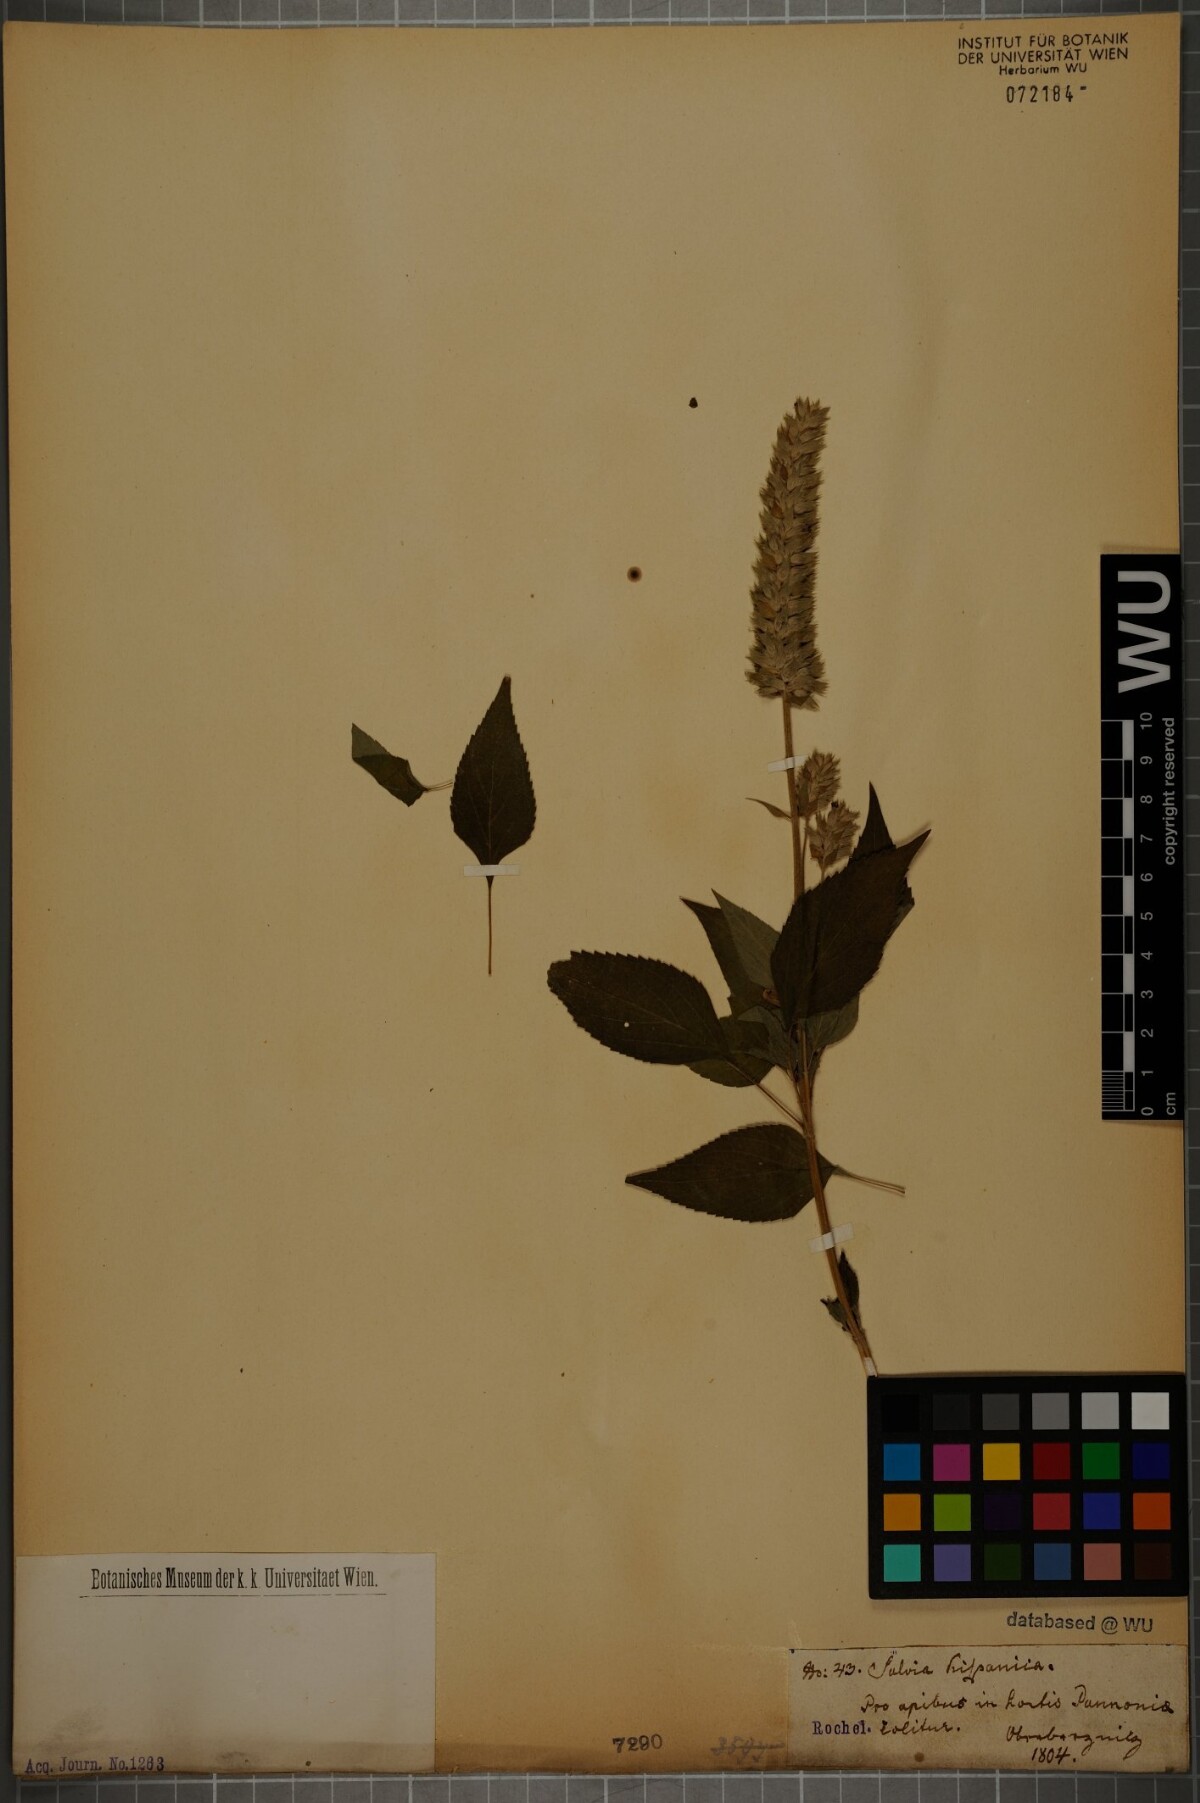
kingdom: Plantae
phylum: Tracheophyta
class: Magnoliopsida
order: Lamiales
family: Lamiaceae
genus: Salvia
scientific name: Salvia hispanica
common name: Chia
